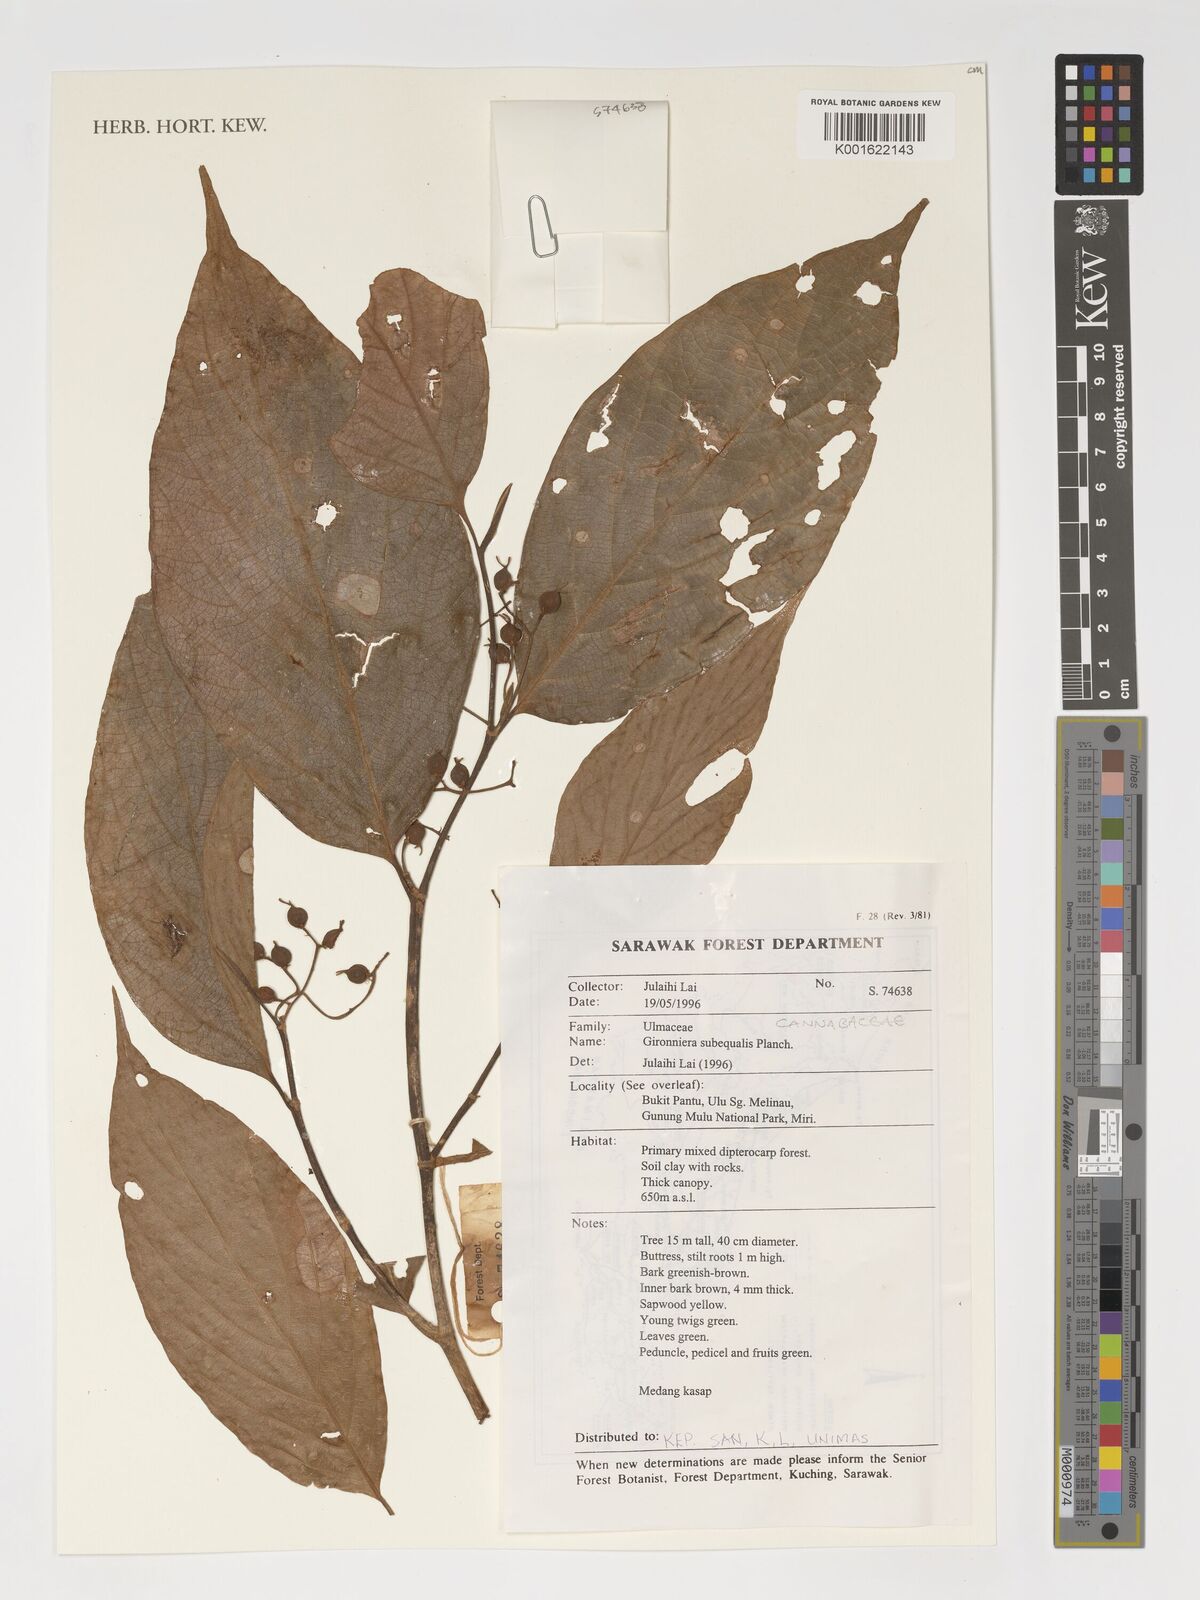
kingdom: Plantae
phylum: Tracheophyta
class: Magnoliopsida
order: Rosales
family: Cannabaceae
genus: Gironniera
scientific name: Gironniera
